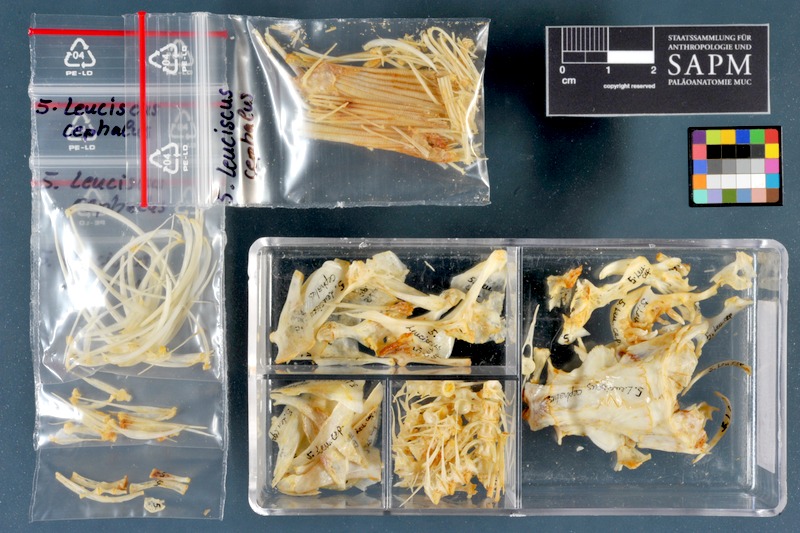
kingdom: Animalia
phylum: Chordata
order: Cypriniformes
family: Cyprinidae
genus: Squalius
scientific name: Squalius cephalus
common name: Chub
